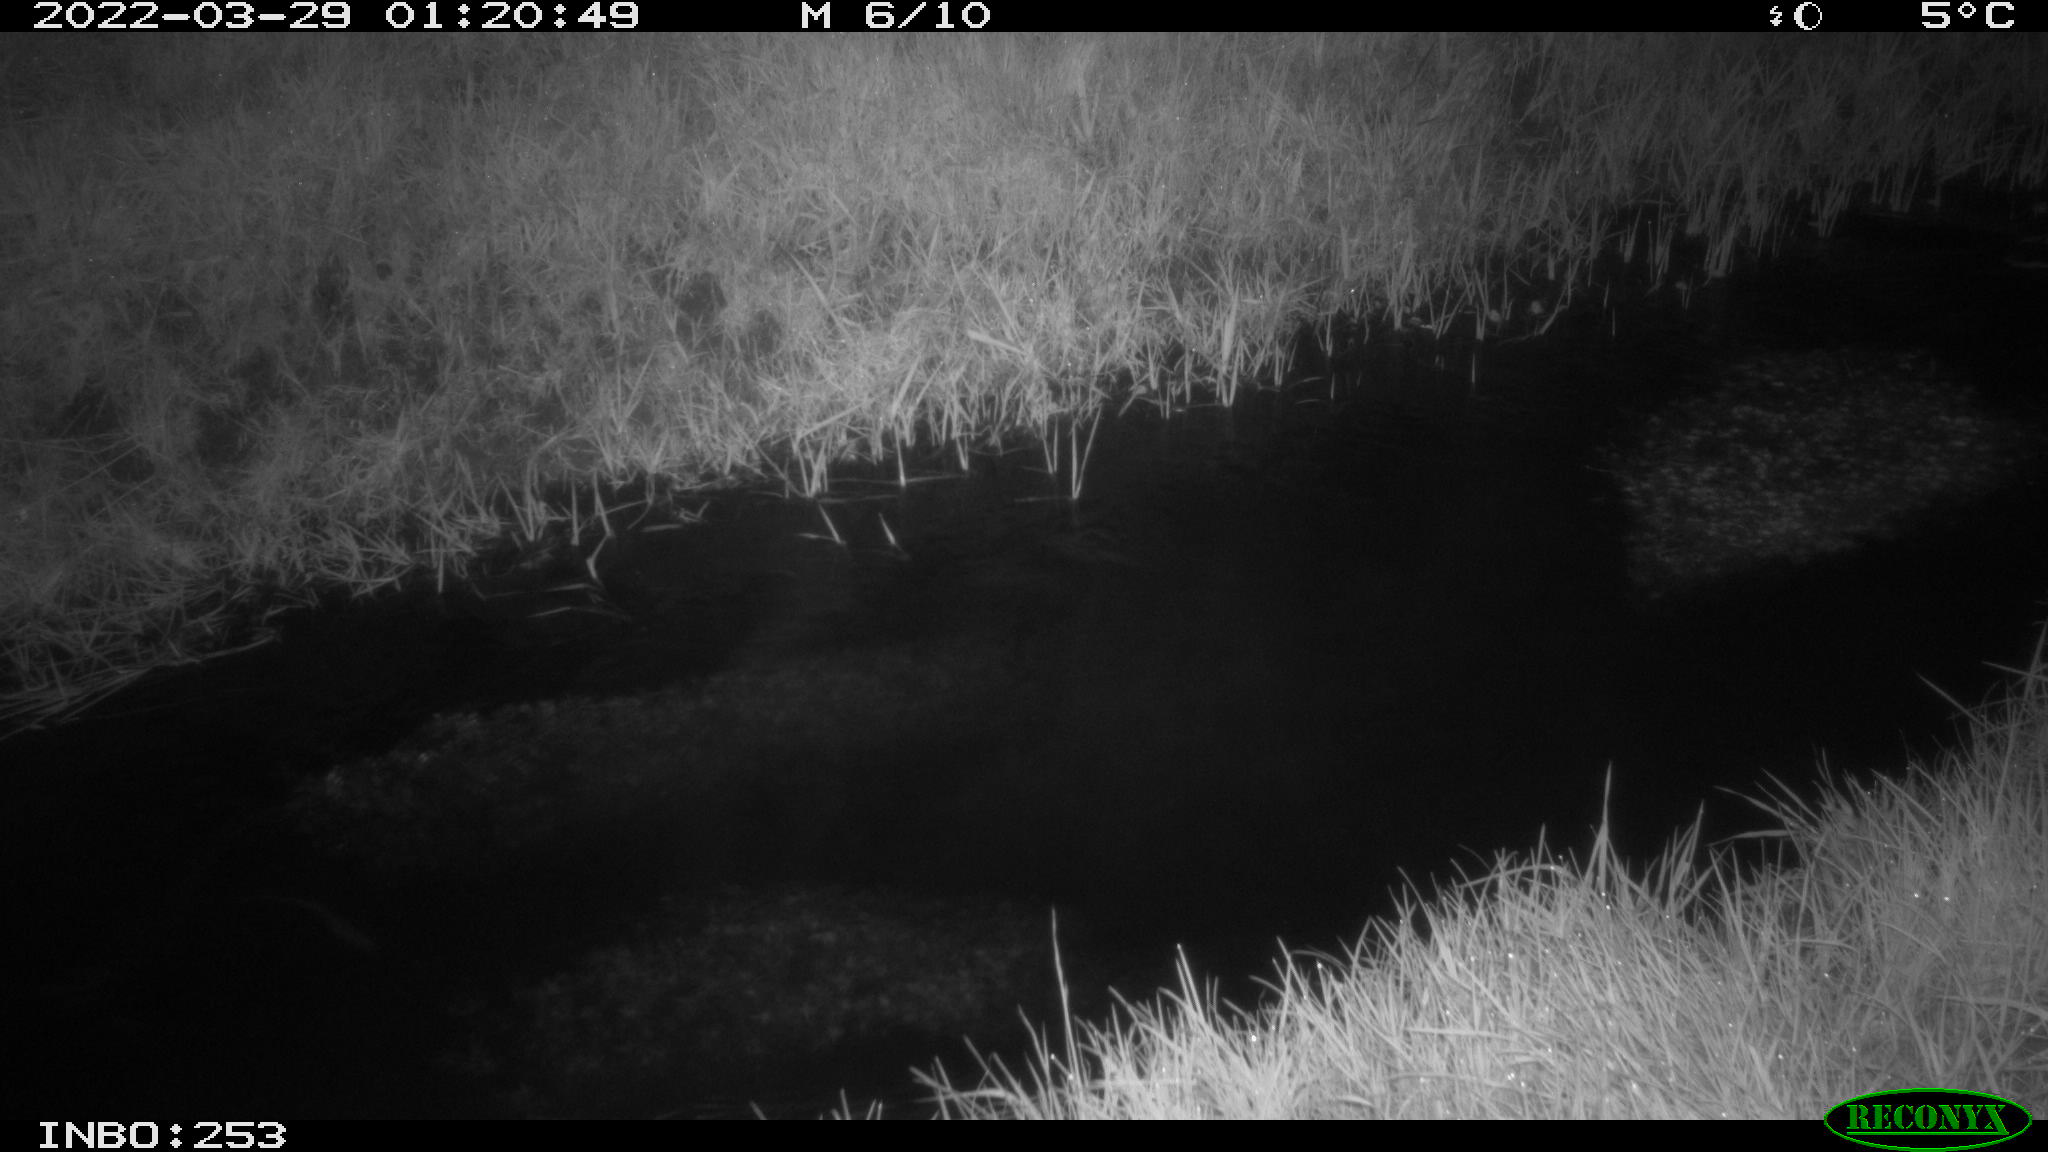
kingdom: Animalia
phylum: Chordata
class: Aves
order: Anseriformes
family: Anatidae
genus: Anas
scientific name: Anas platyrhynchos
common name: Mallard
